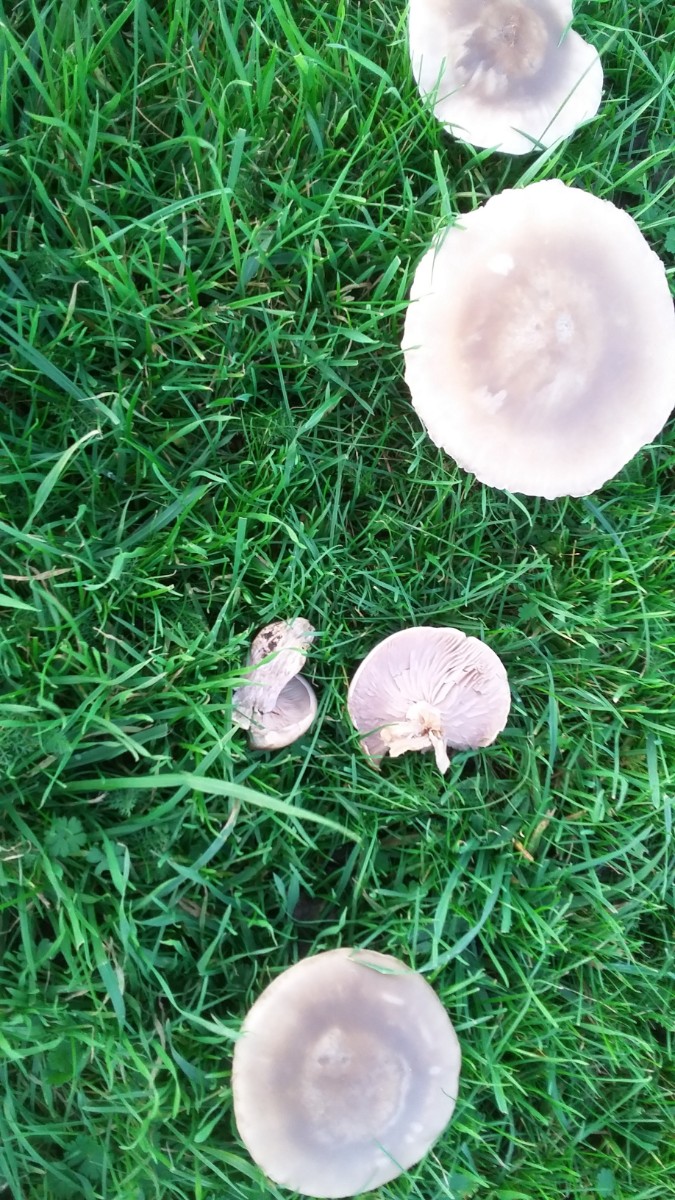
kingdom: Fungi
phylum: Basidiomycota
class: Agaricomycetes
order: Agaricales
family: Tricholomataceae
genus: Lepista
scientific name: Lepista
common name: hekseringshat
